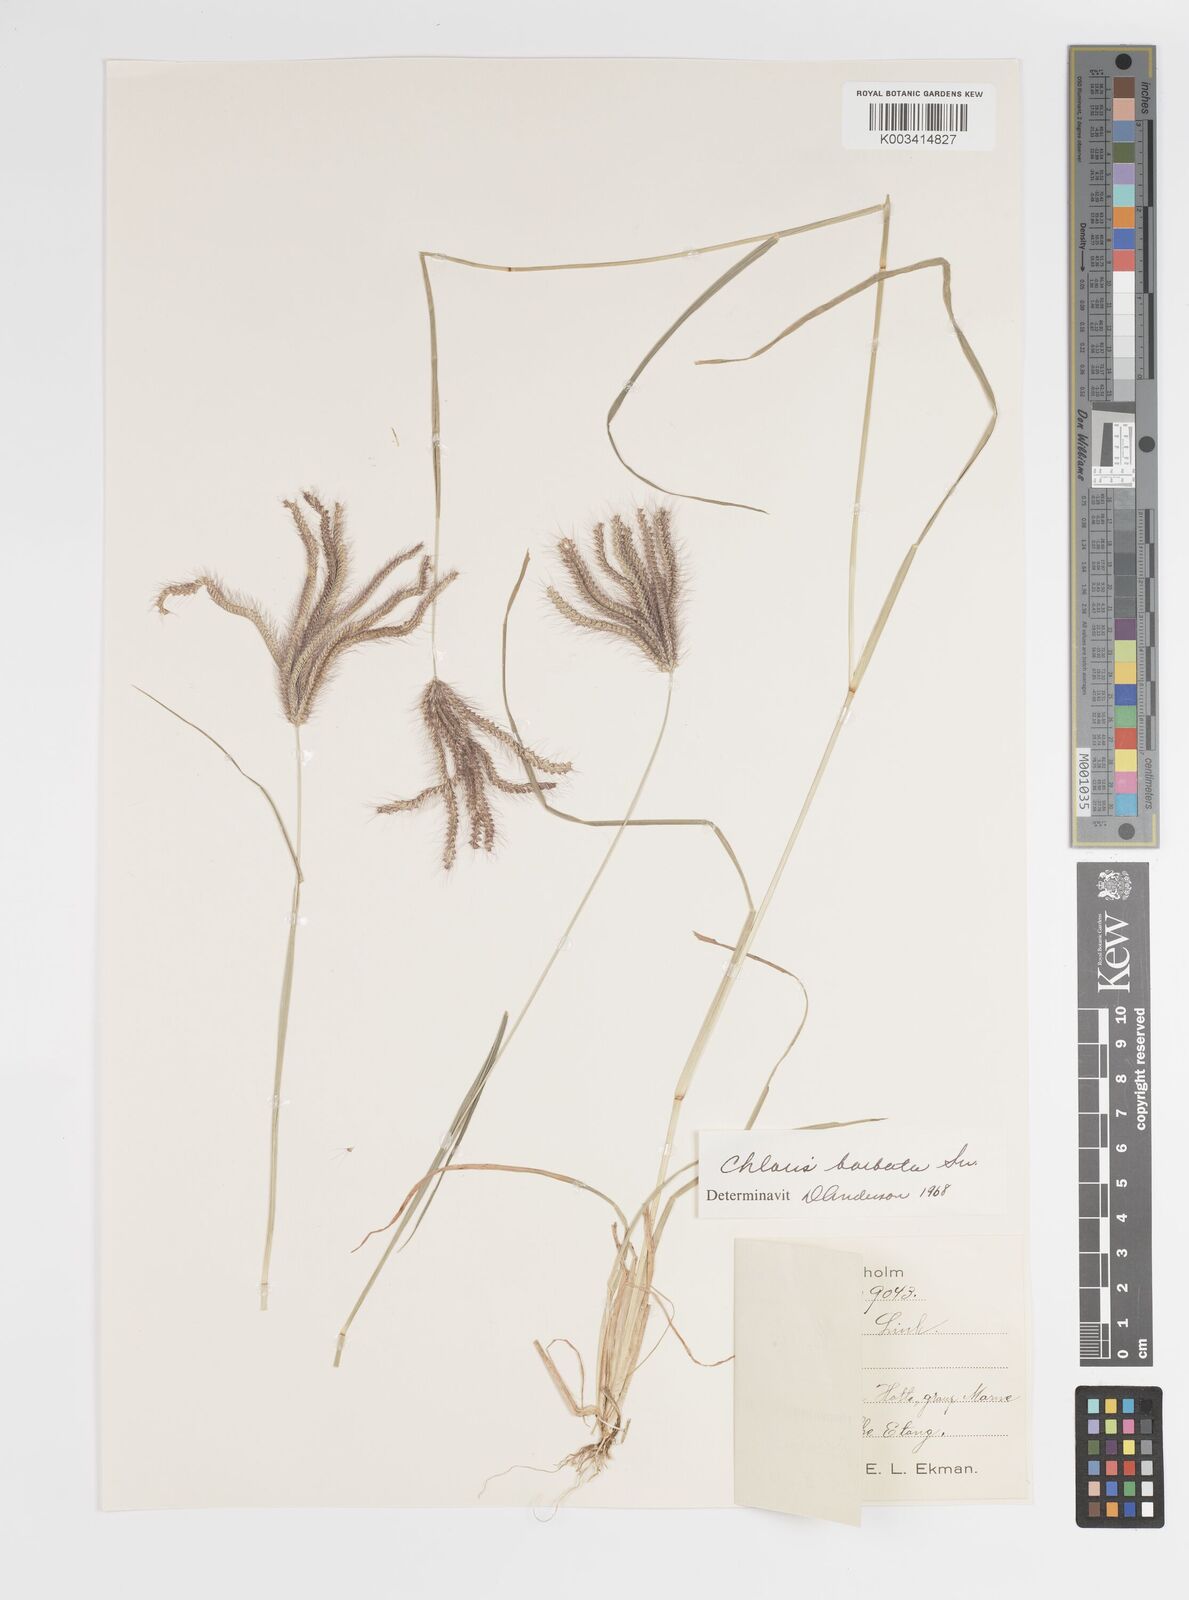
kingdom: Plantae
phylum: Tracheophyta
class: Liliopsida
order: Poales
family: Poaceae
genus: Chloris
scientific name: Chloris barbata
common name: Swollen fingergrass
